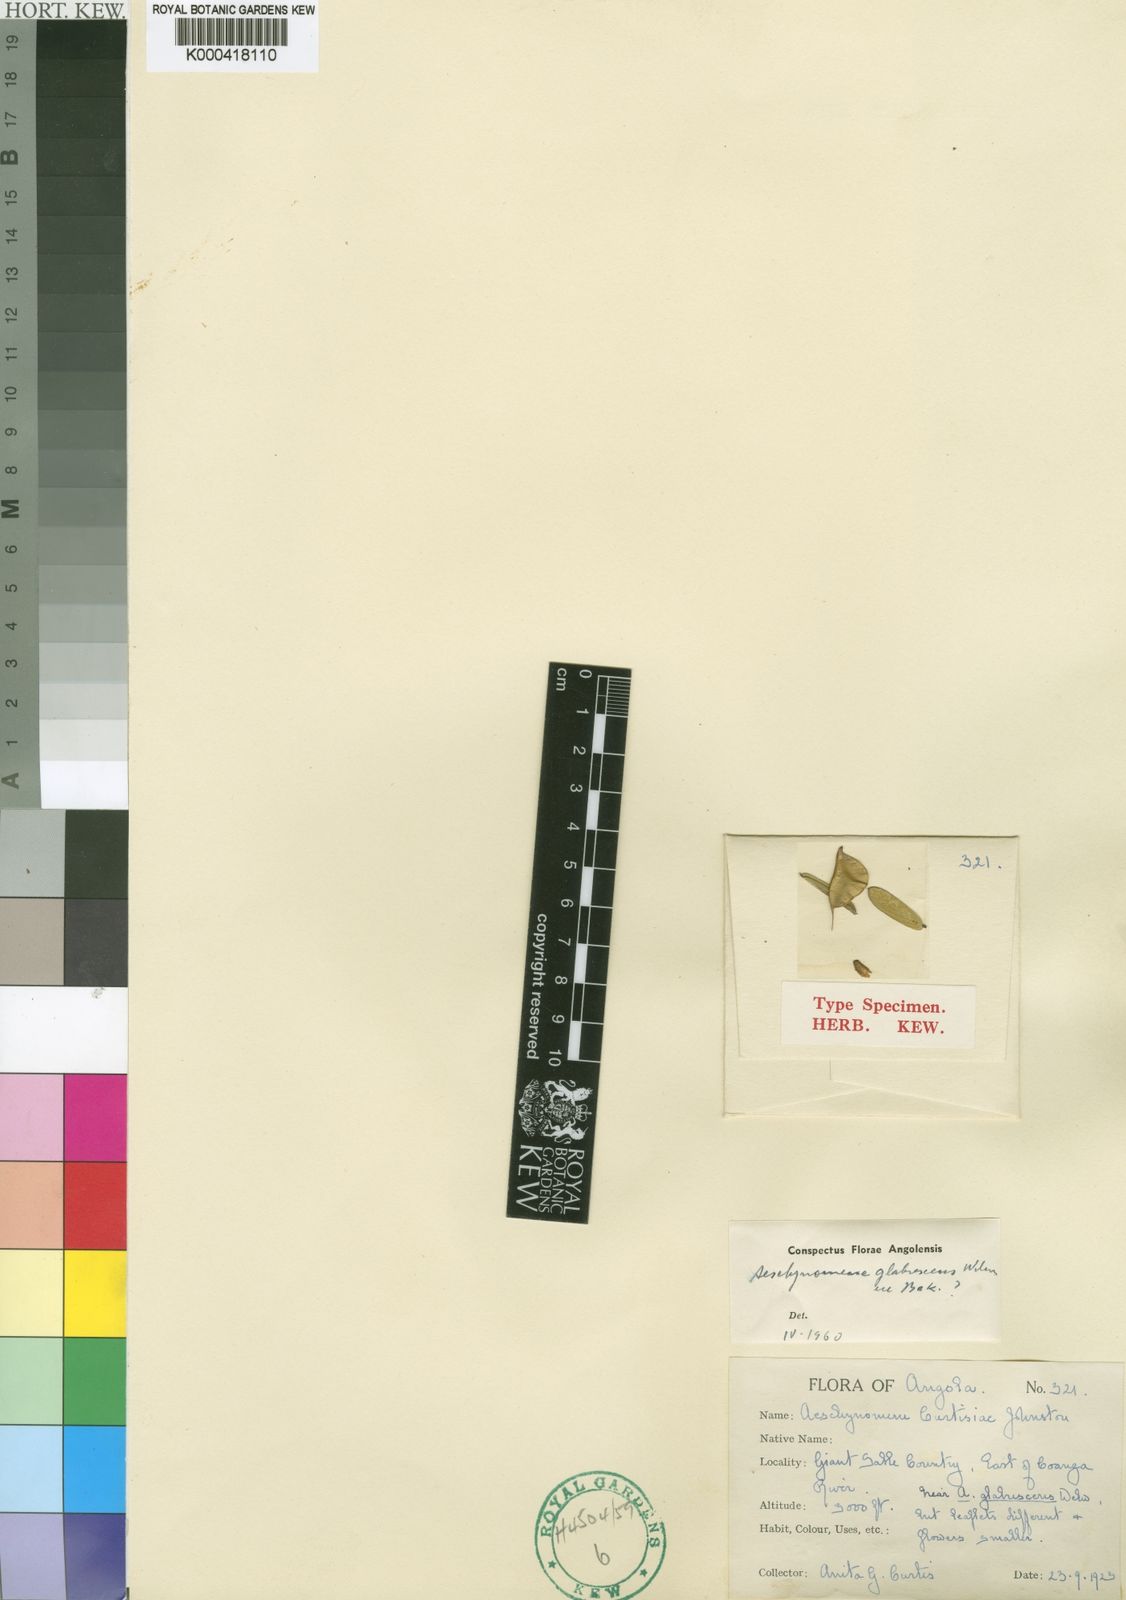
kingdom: Plantae
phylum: Tracheophyta
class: Magnoliopsida
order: Fabales
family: Fabaceae
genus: Aeschynomene
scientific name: Aeschynomene glabrescens
